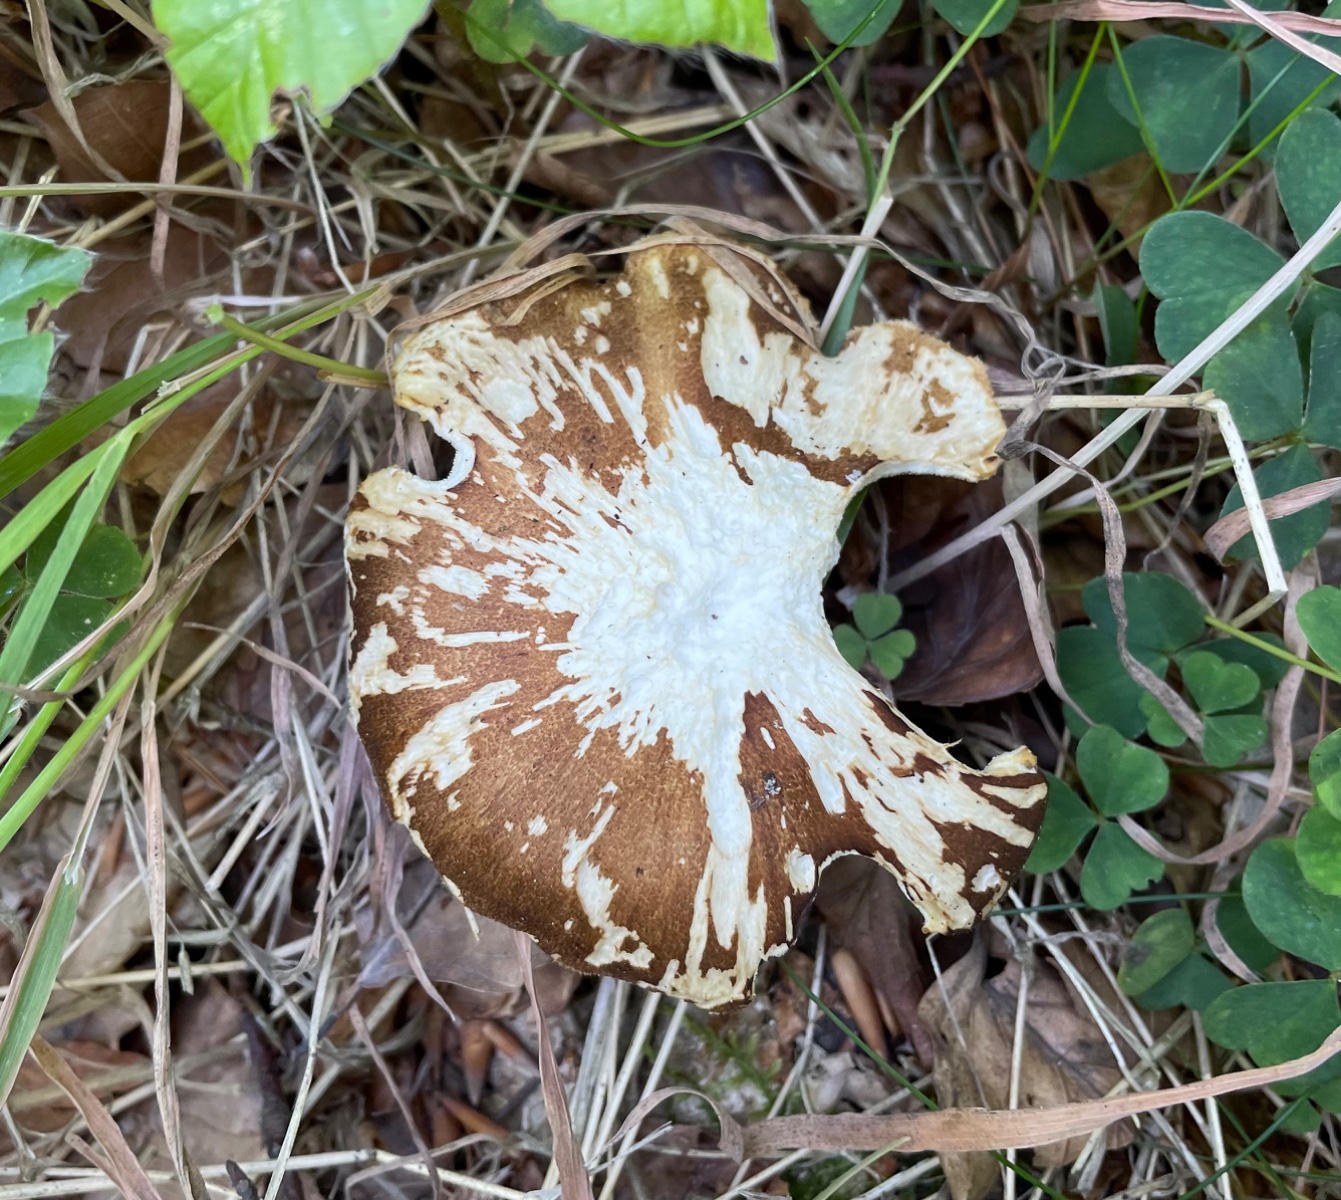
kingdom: Fungi
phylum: Basidiomycota
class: Agaricomycetes
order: Polyporales
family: Polyporaceae
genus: Lentinus
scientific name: Lentinus substrictus
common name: forårs-stilkporesvamp
